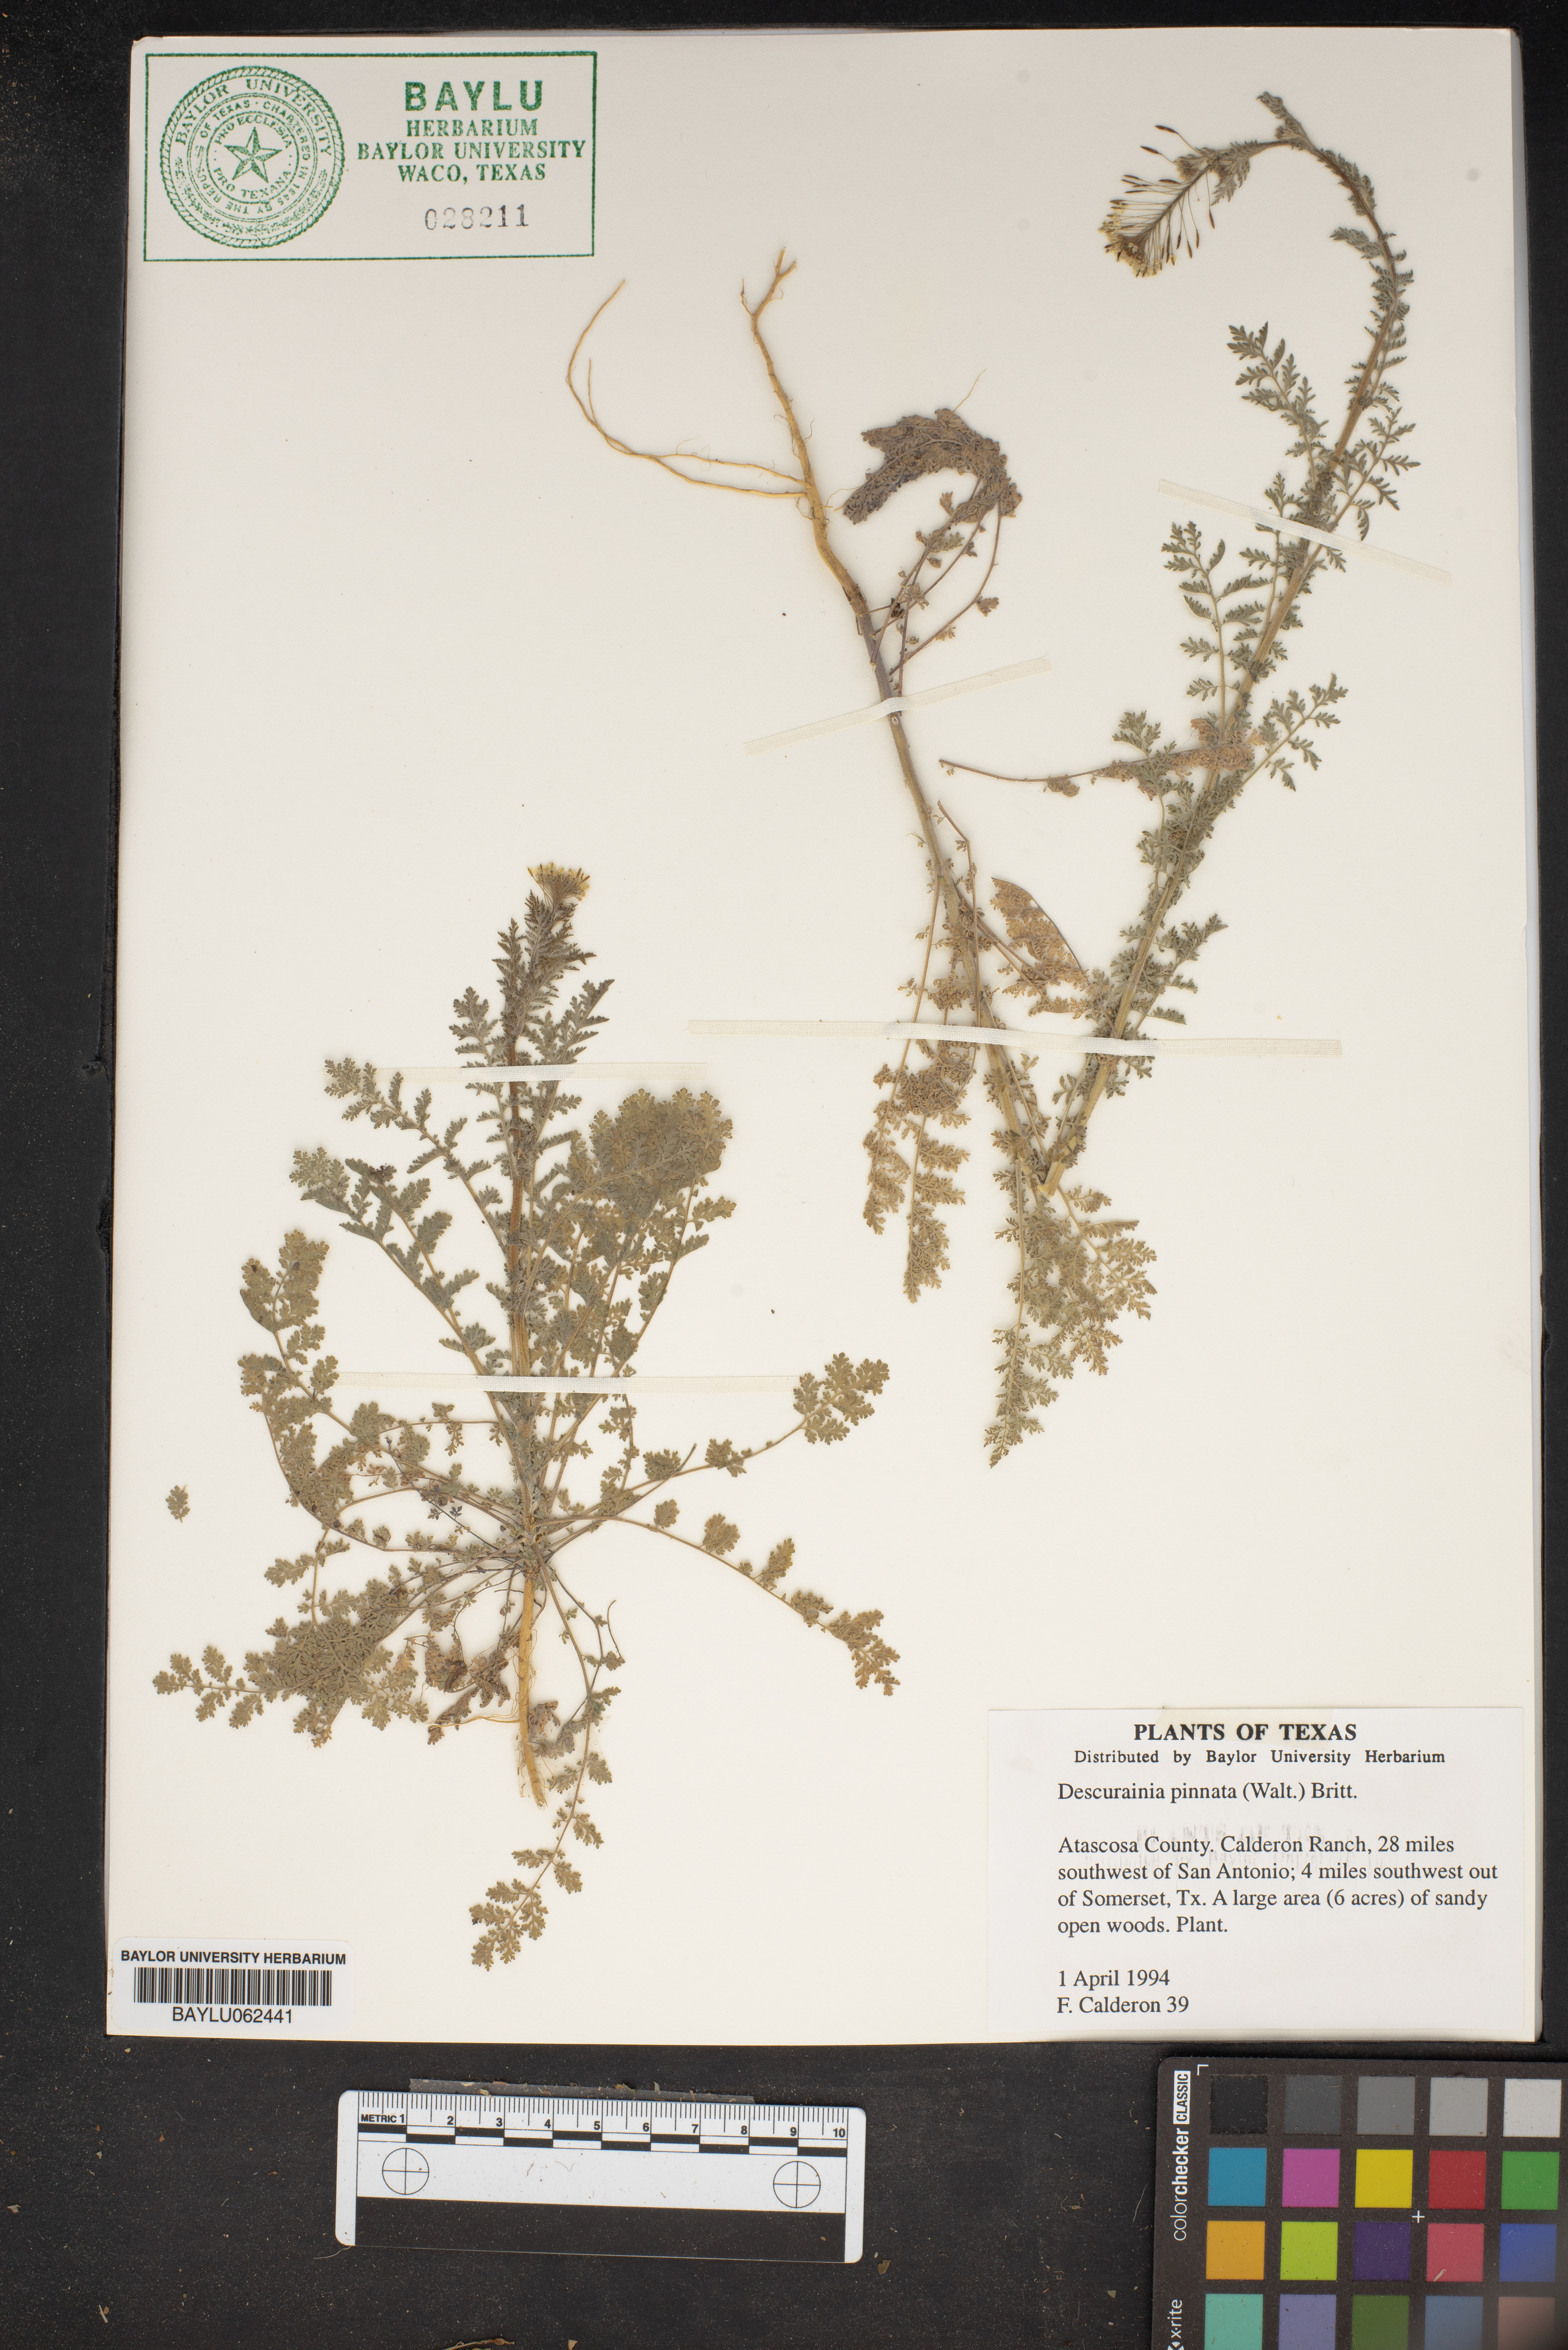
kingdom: Plantae
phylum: Tracheophyta
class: Magnoliopsida
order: Brassicales
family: Brassicaceae
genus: Descurainia
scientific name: Descurainia pinnata
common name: Western tansy mustard
